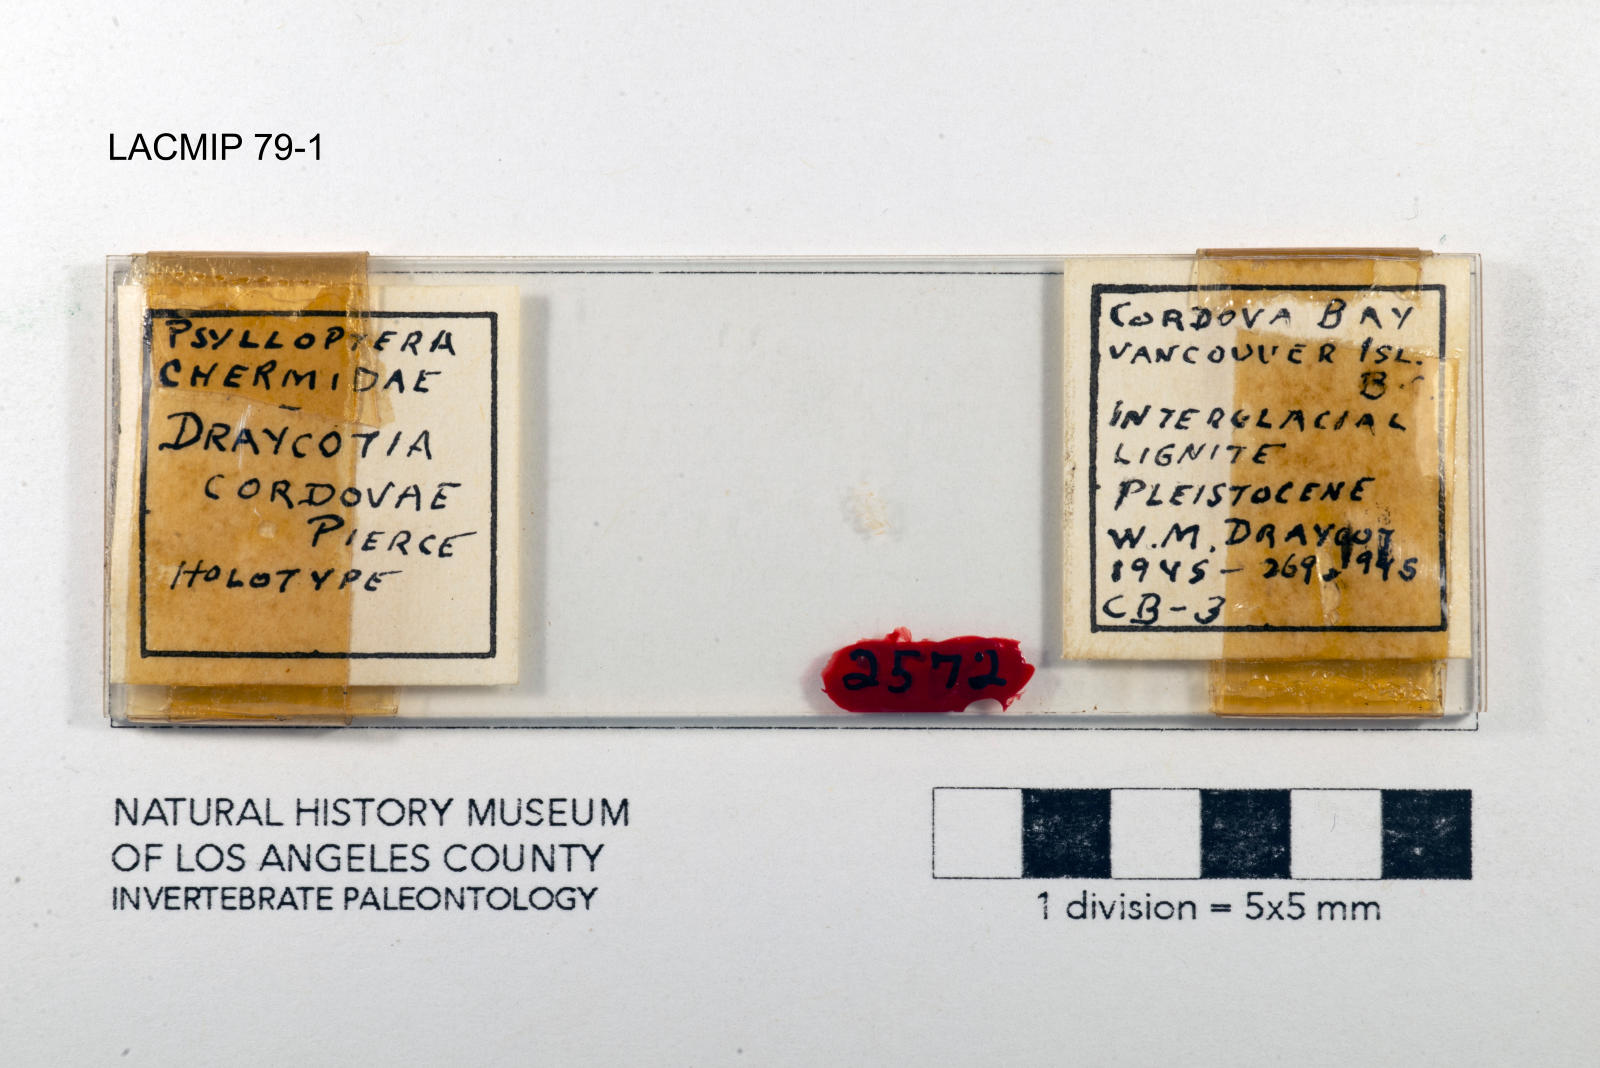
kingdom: Animalia
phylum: Arthropoda
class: Insecta
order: Hemiptera
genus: Draycotia
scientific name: Draycotia cordovae
